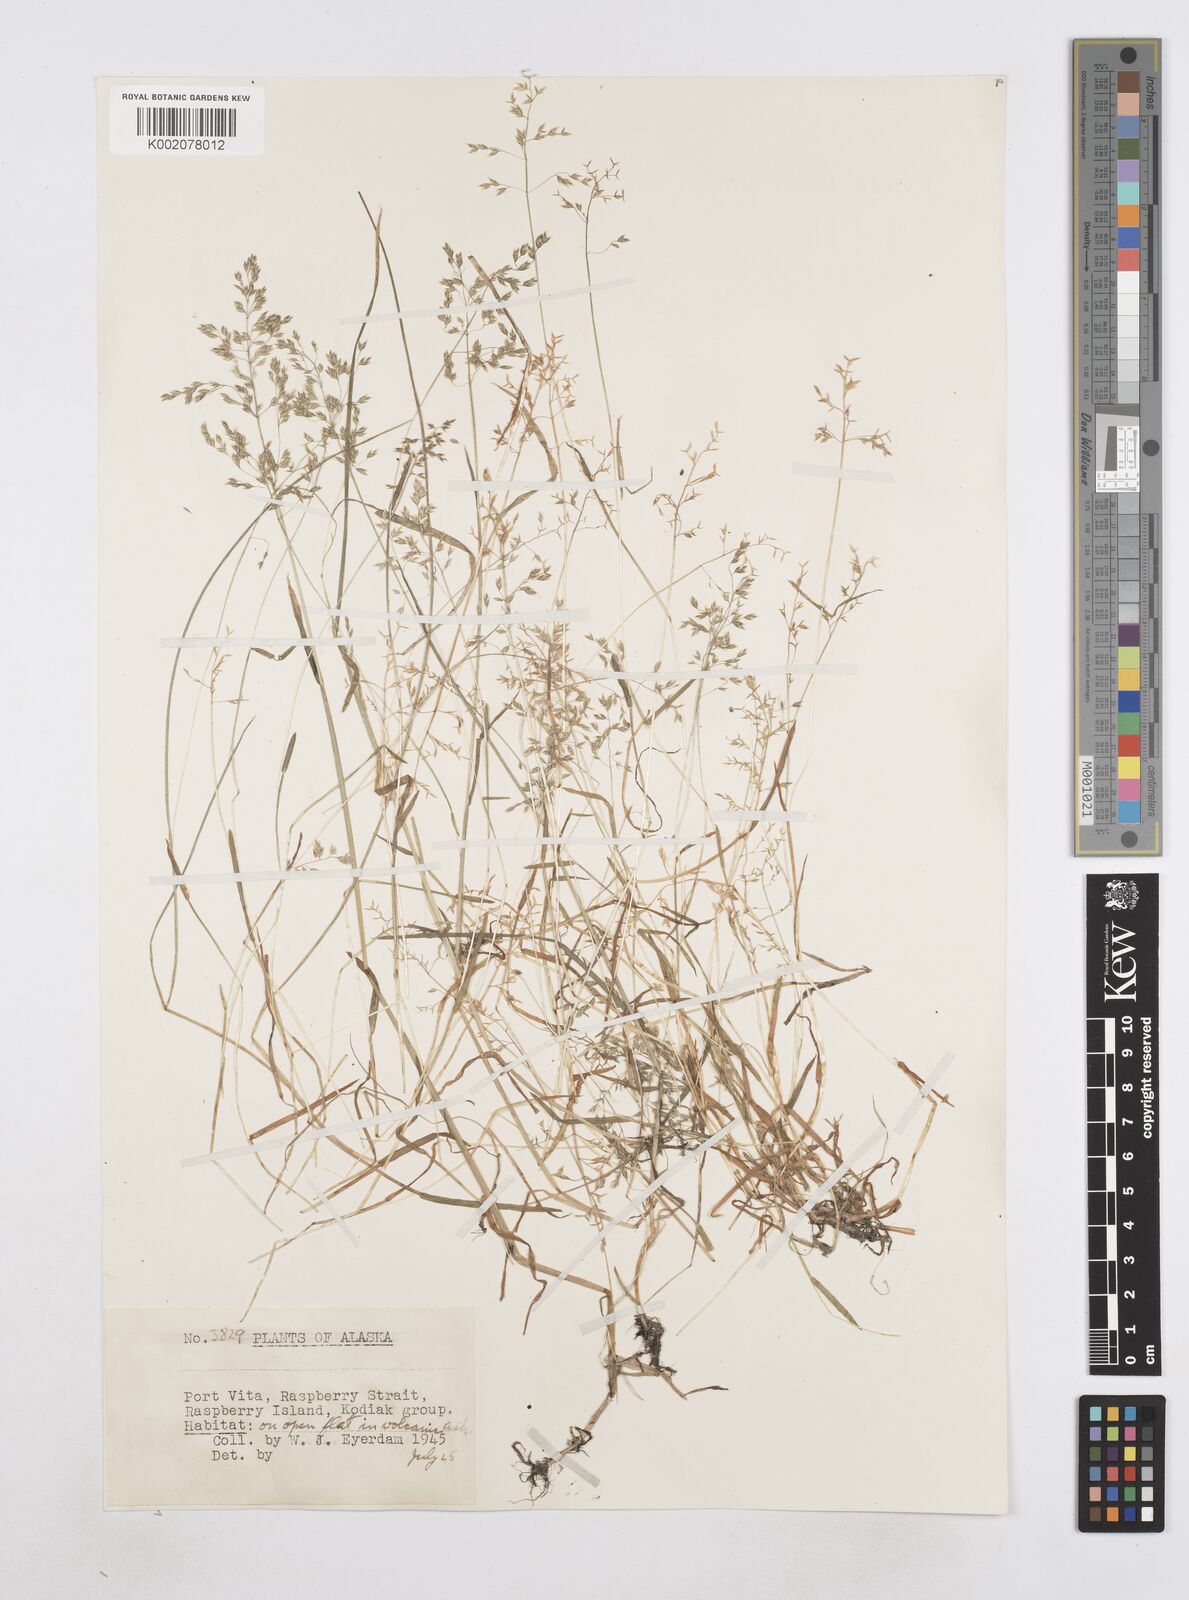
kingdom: Plantae
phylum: Tracheophyta
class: Liliopsida
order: Poales
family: Poaceae
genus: Poa
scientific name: Poa
